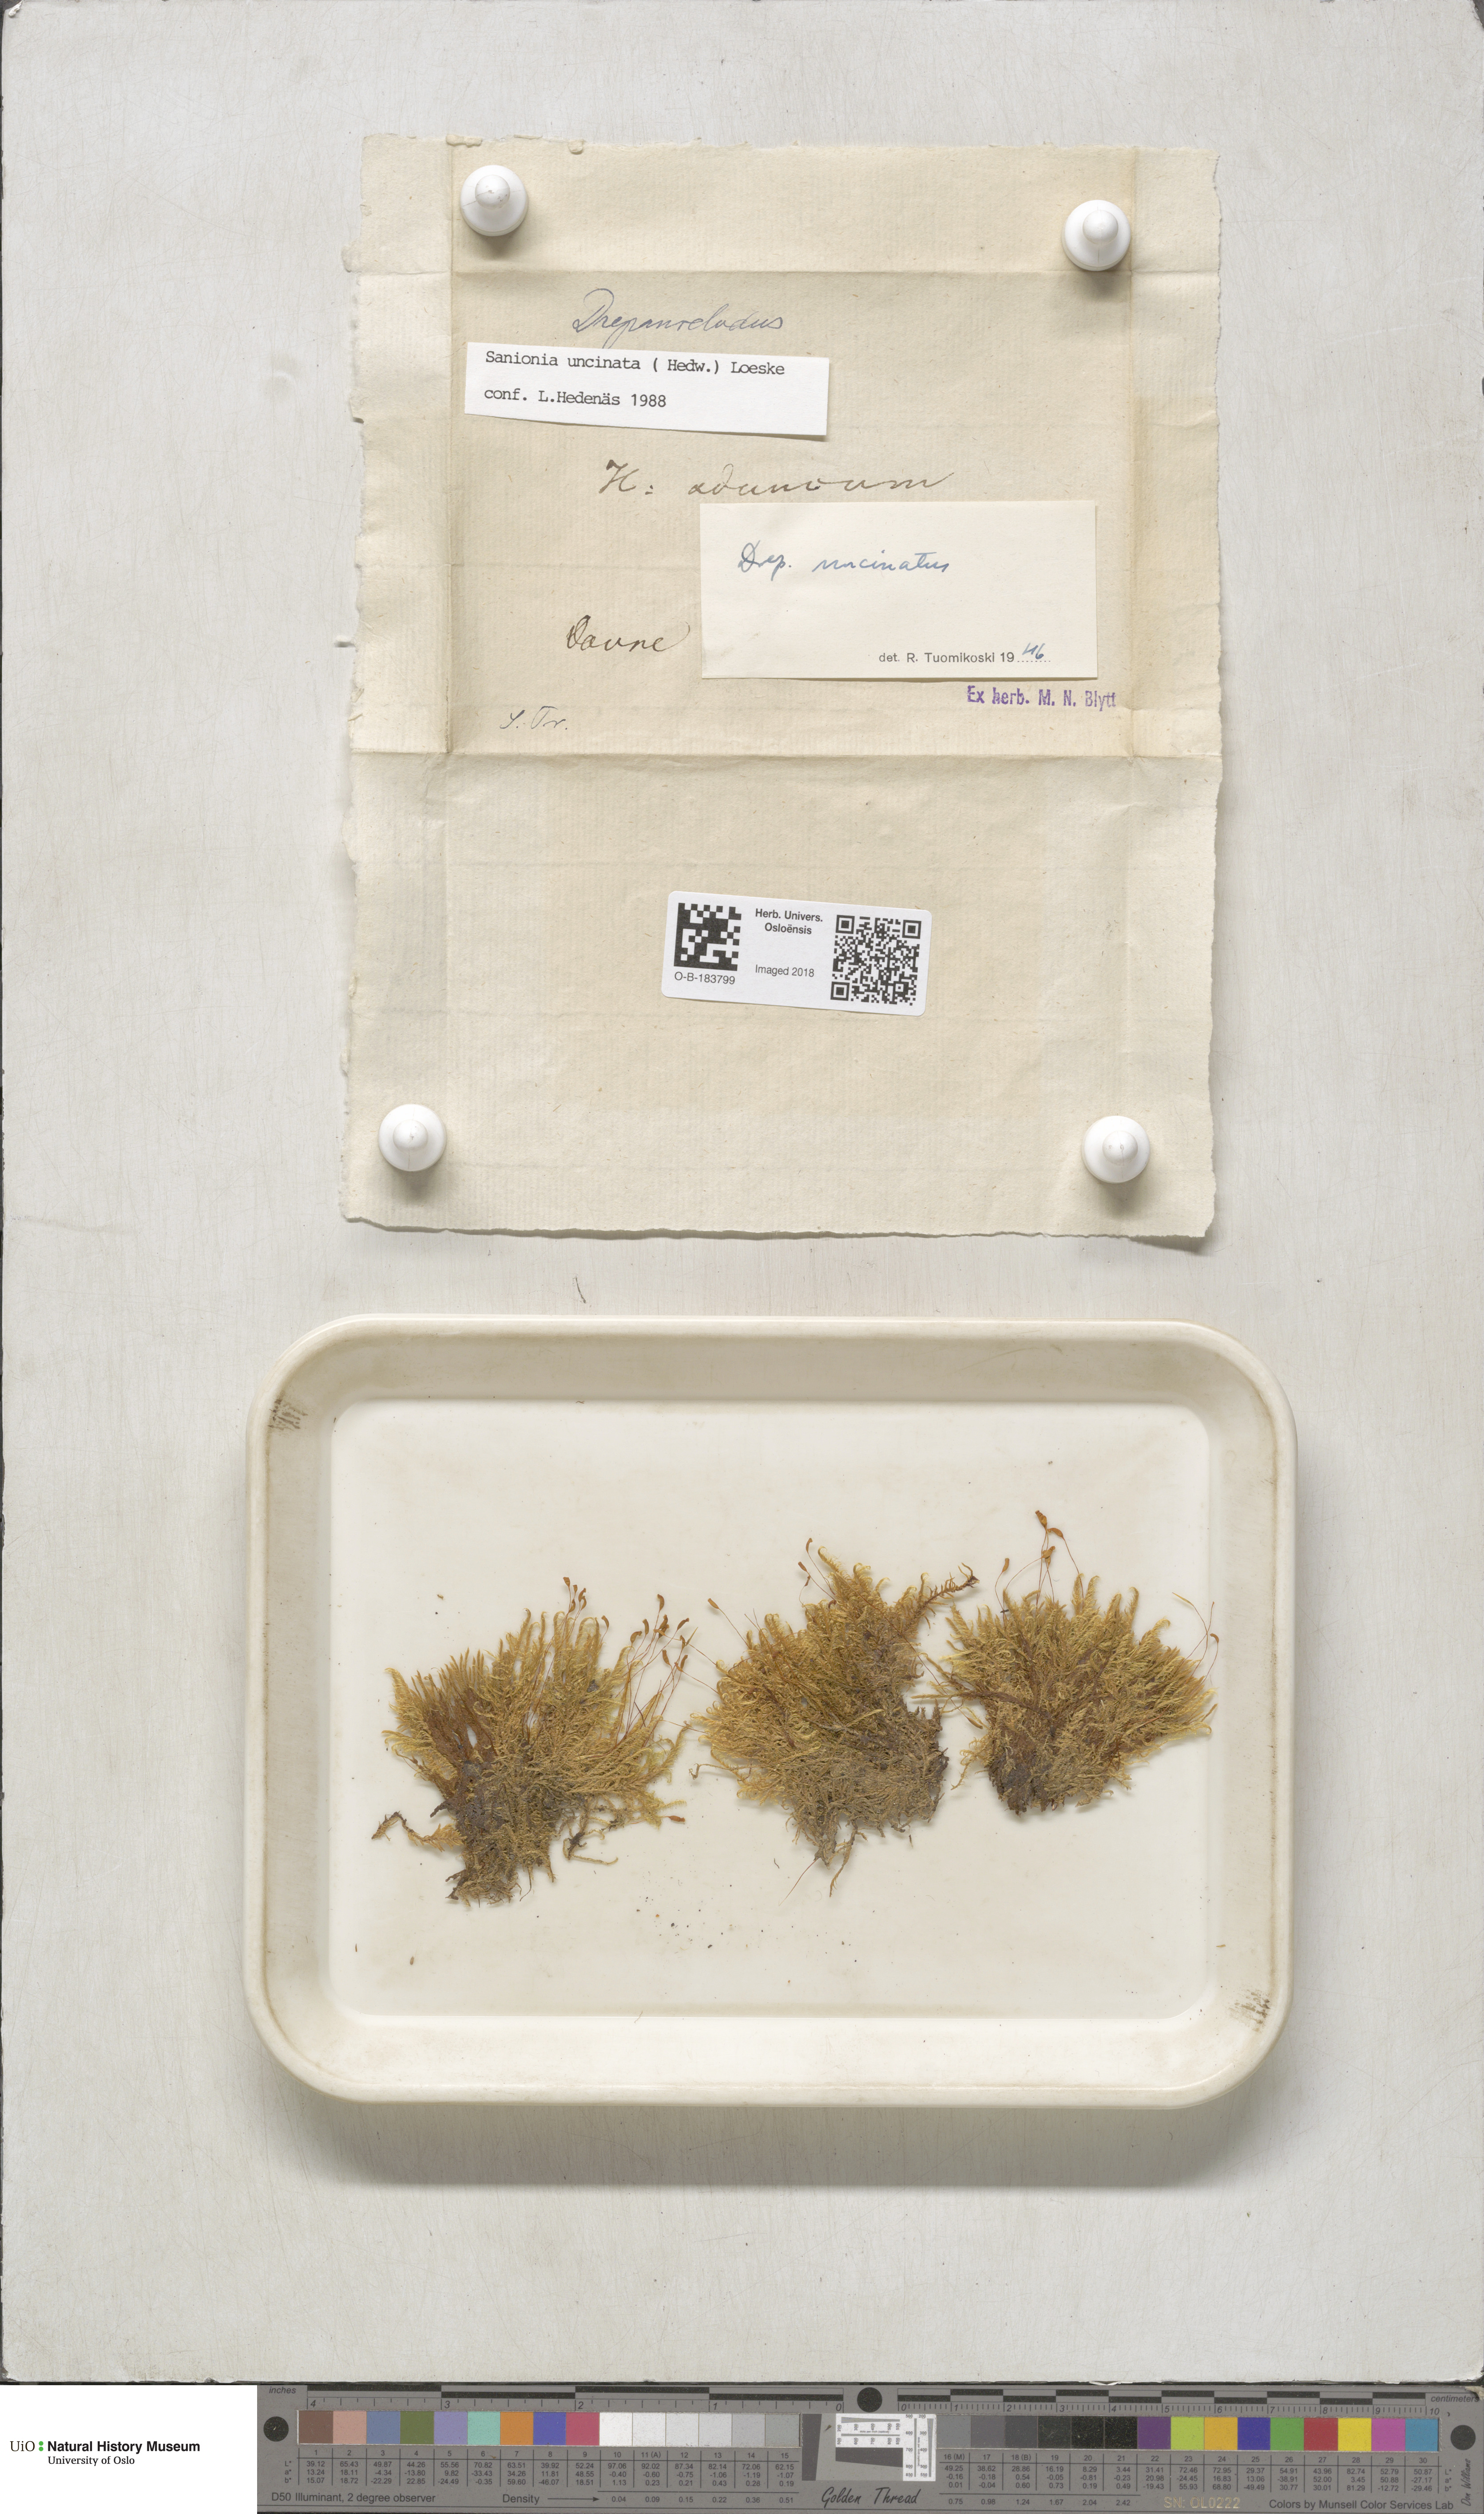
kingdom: Plantae
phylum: Bryophyta
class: Bryopsida
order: Hypnales
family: Scorpidiaceae
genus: Sanionia
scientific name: Sanionia uncinata
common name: Sickle moss
